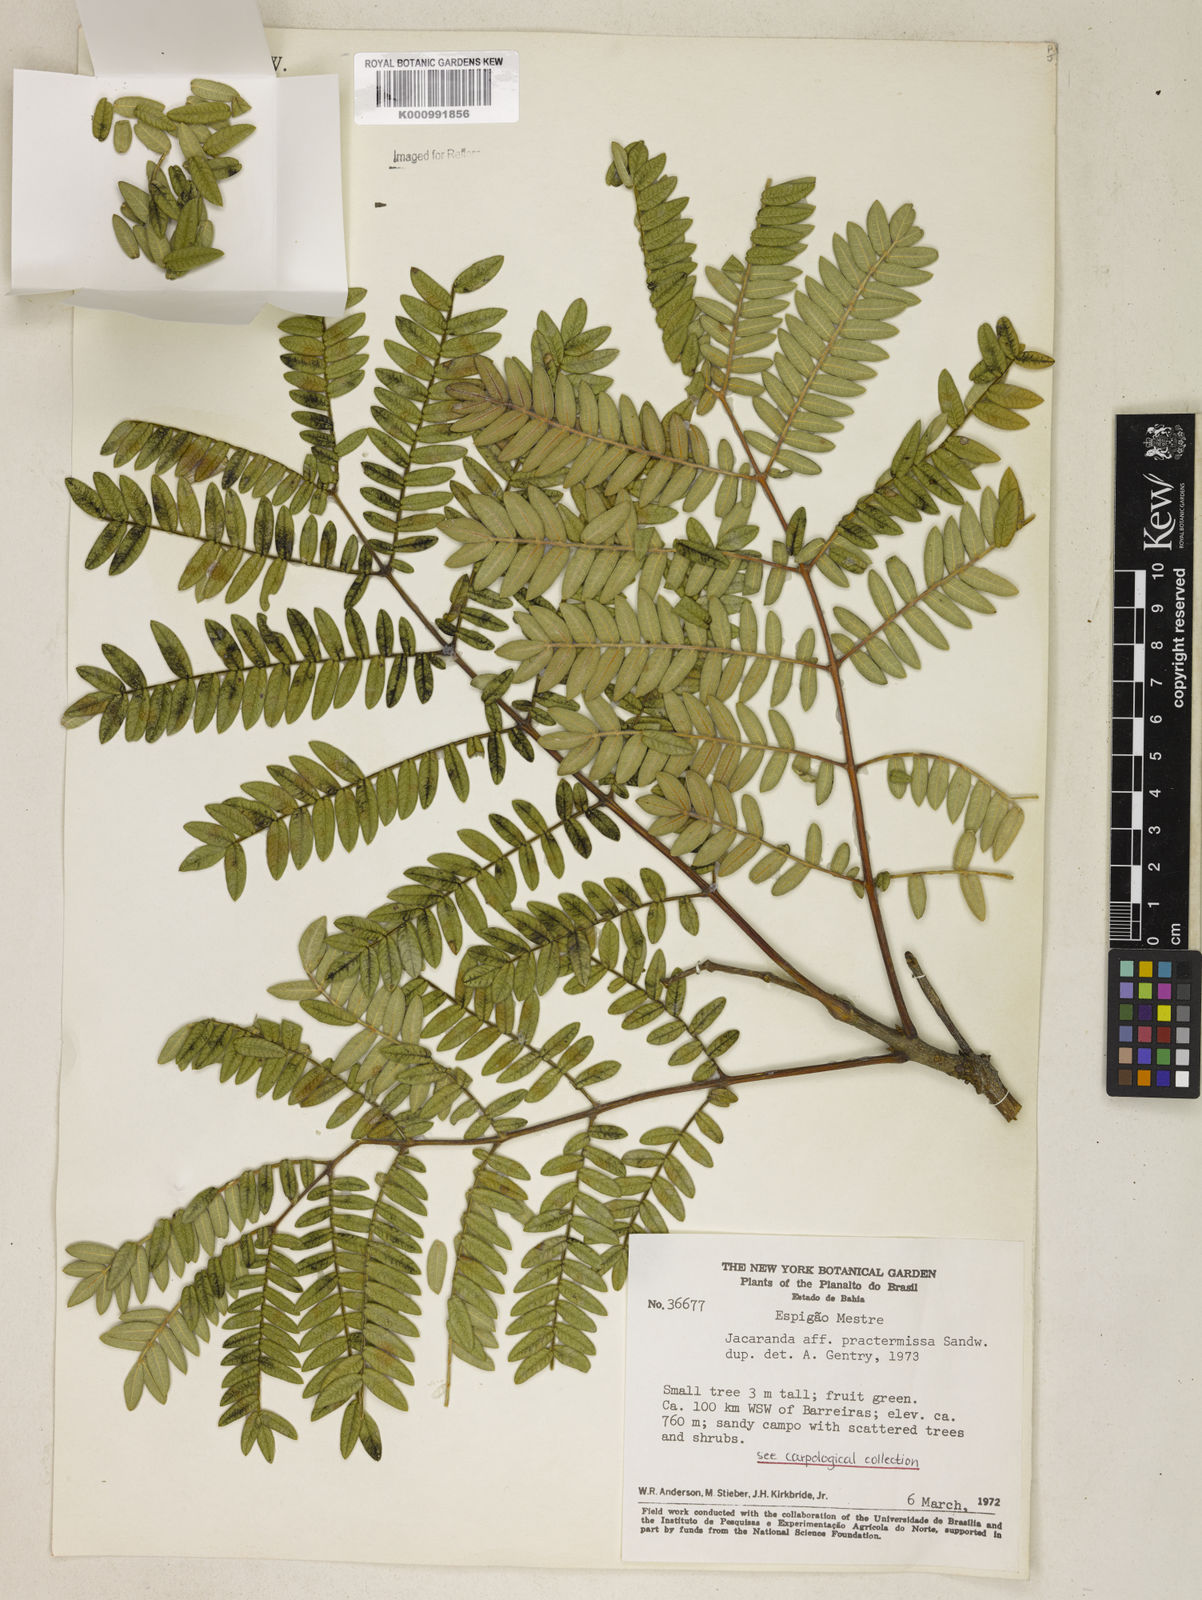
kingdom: Plantae
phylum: Tracheophyta
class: Magnoliopsida
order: Lamiales
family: Bignoniaceae
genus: Jacaranda
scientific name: Jacaranda praetermissa
